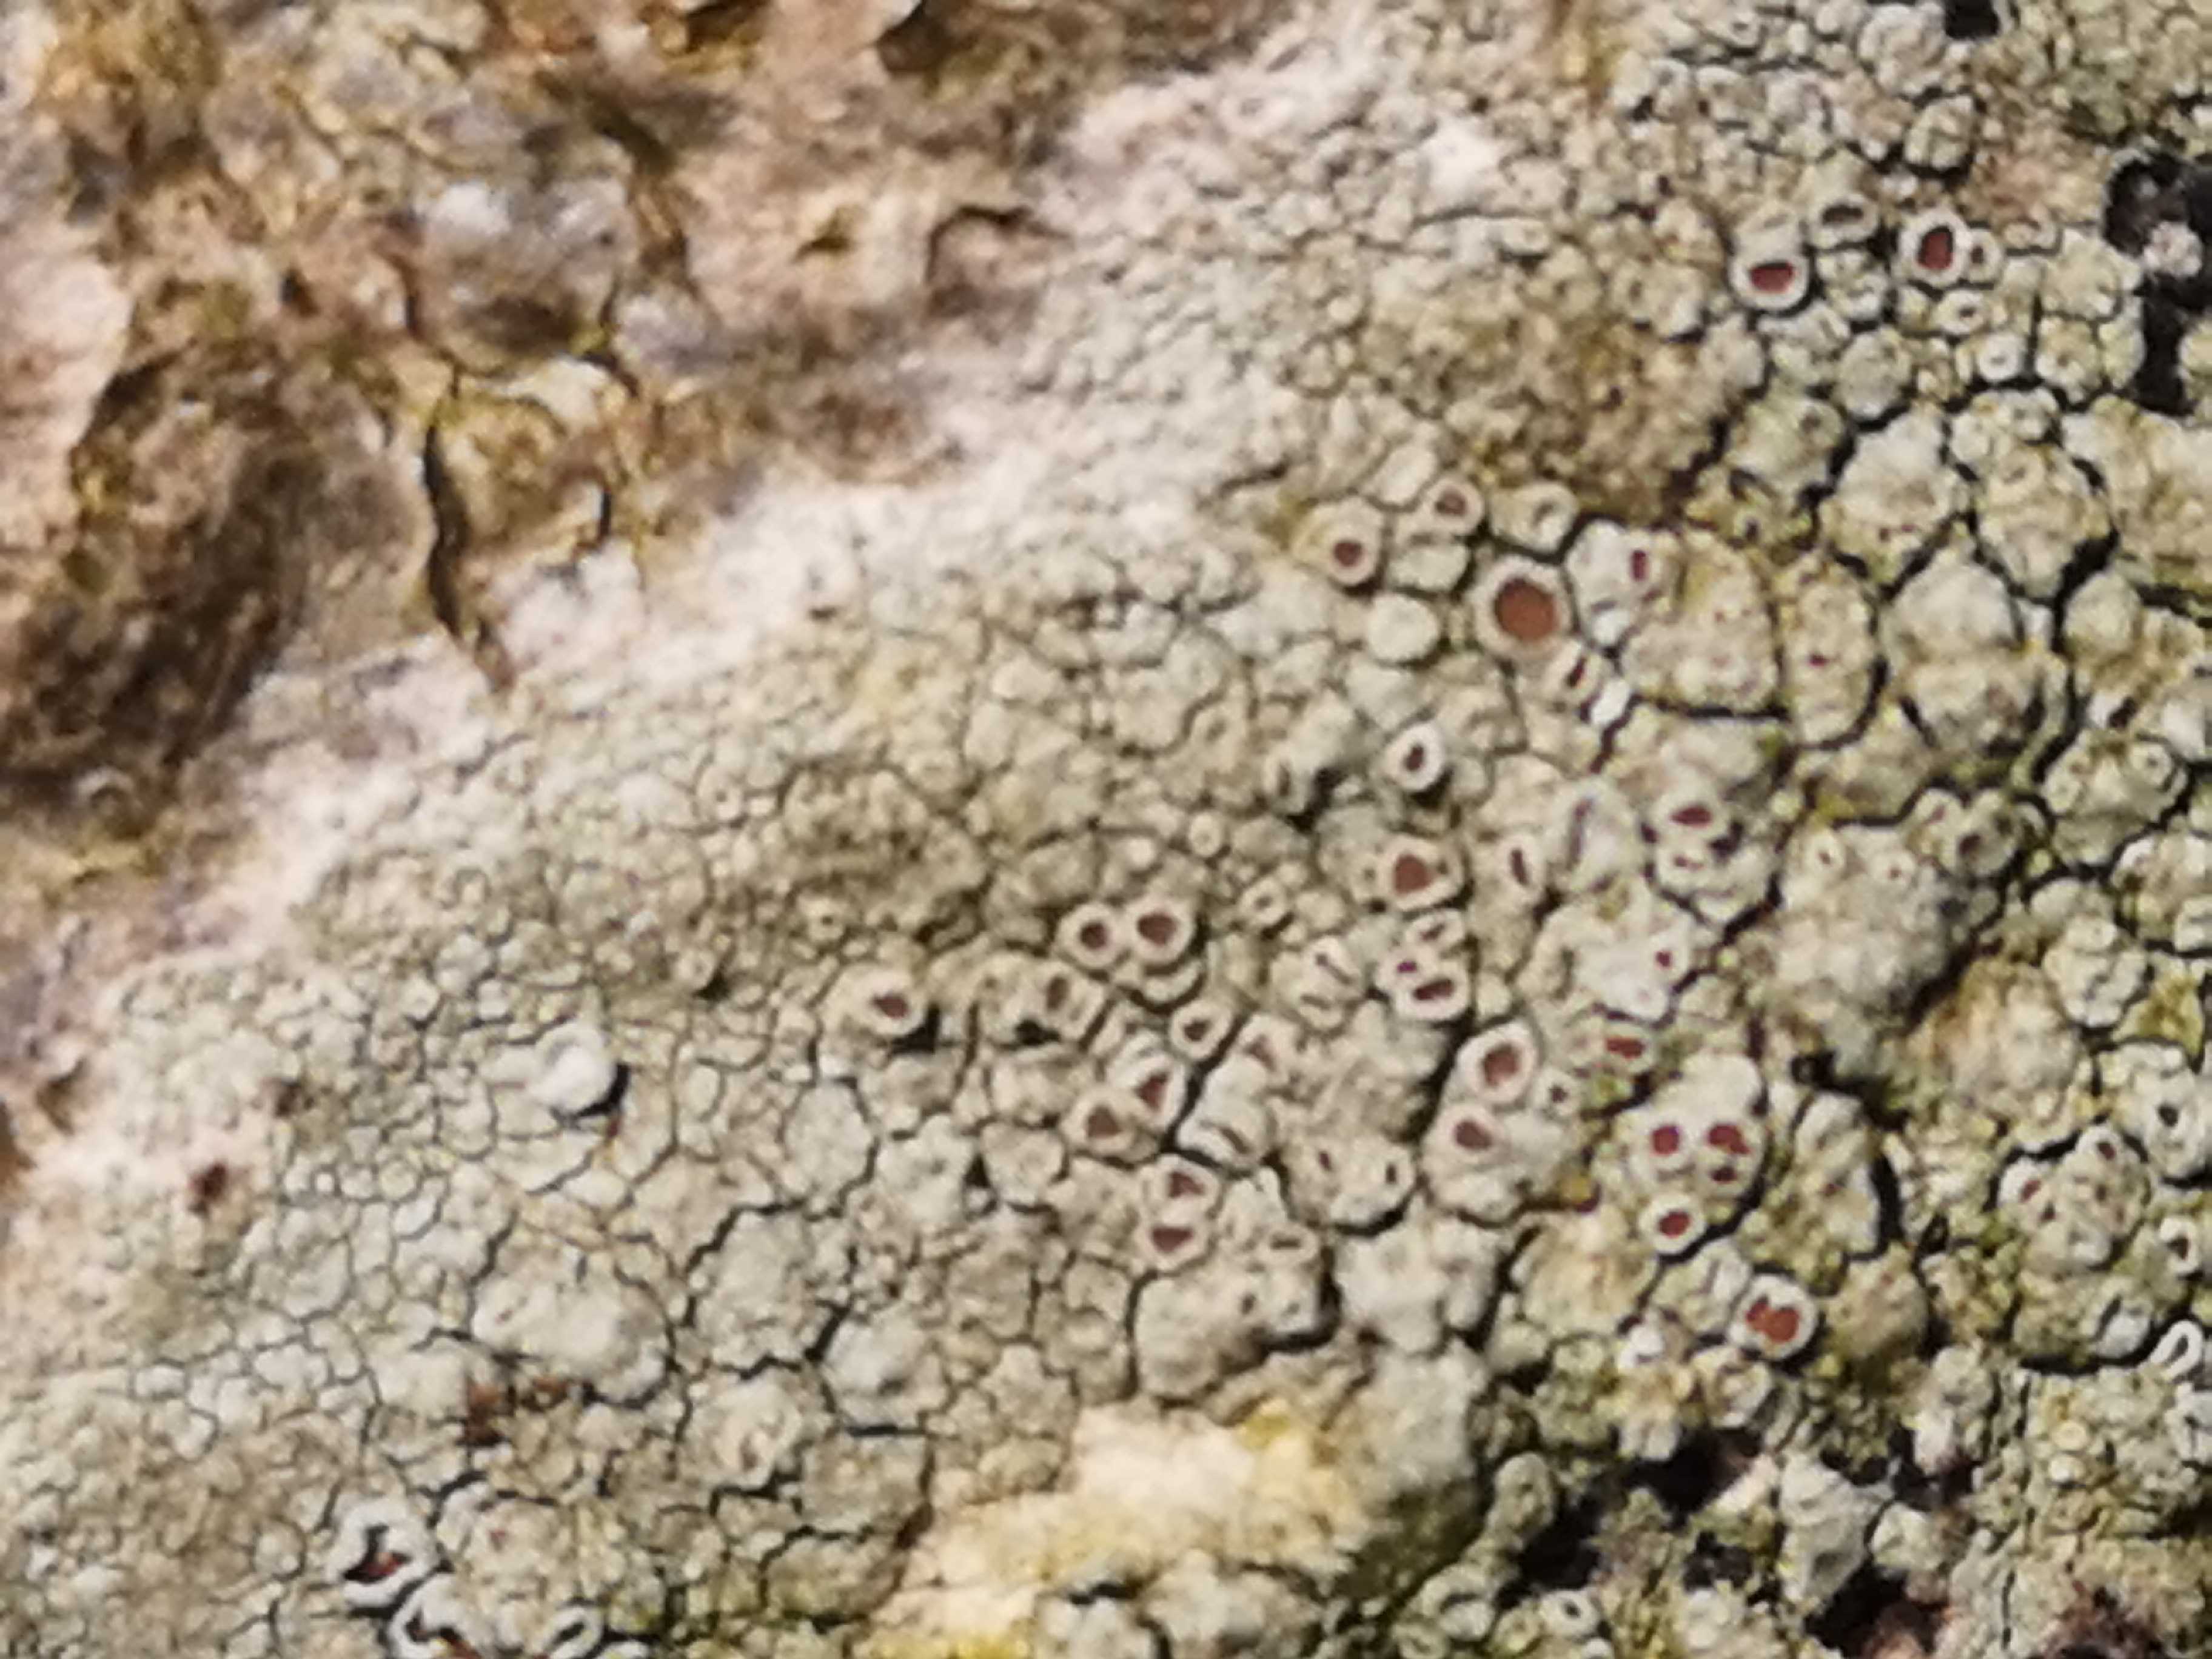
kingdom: Fungi
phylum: Ascomycota
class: Lecanoromycetes
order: Lecanorales
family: Lecanoraceae
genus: Lecanora
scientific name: Lecanora chlarotera
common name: brun kantskivelav
